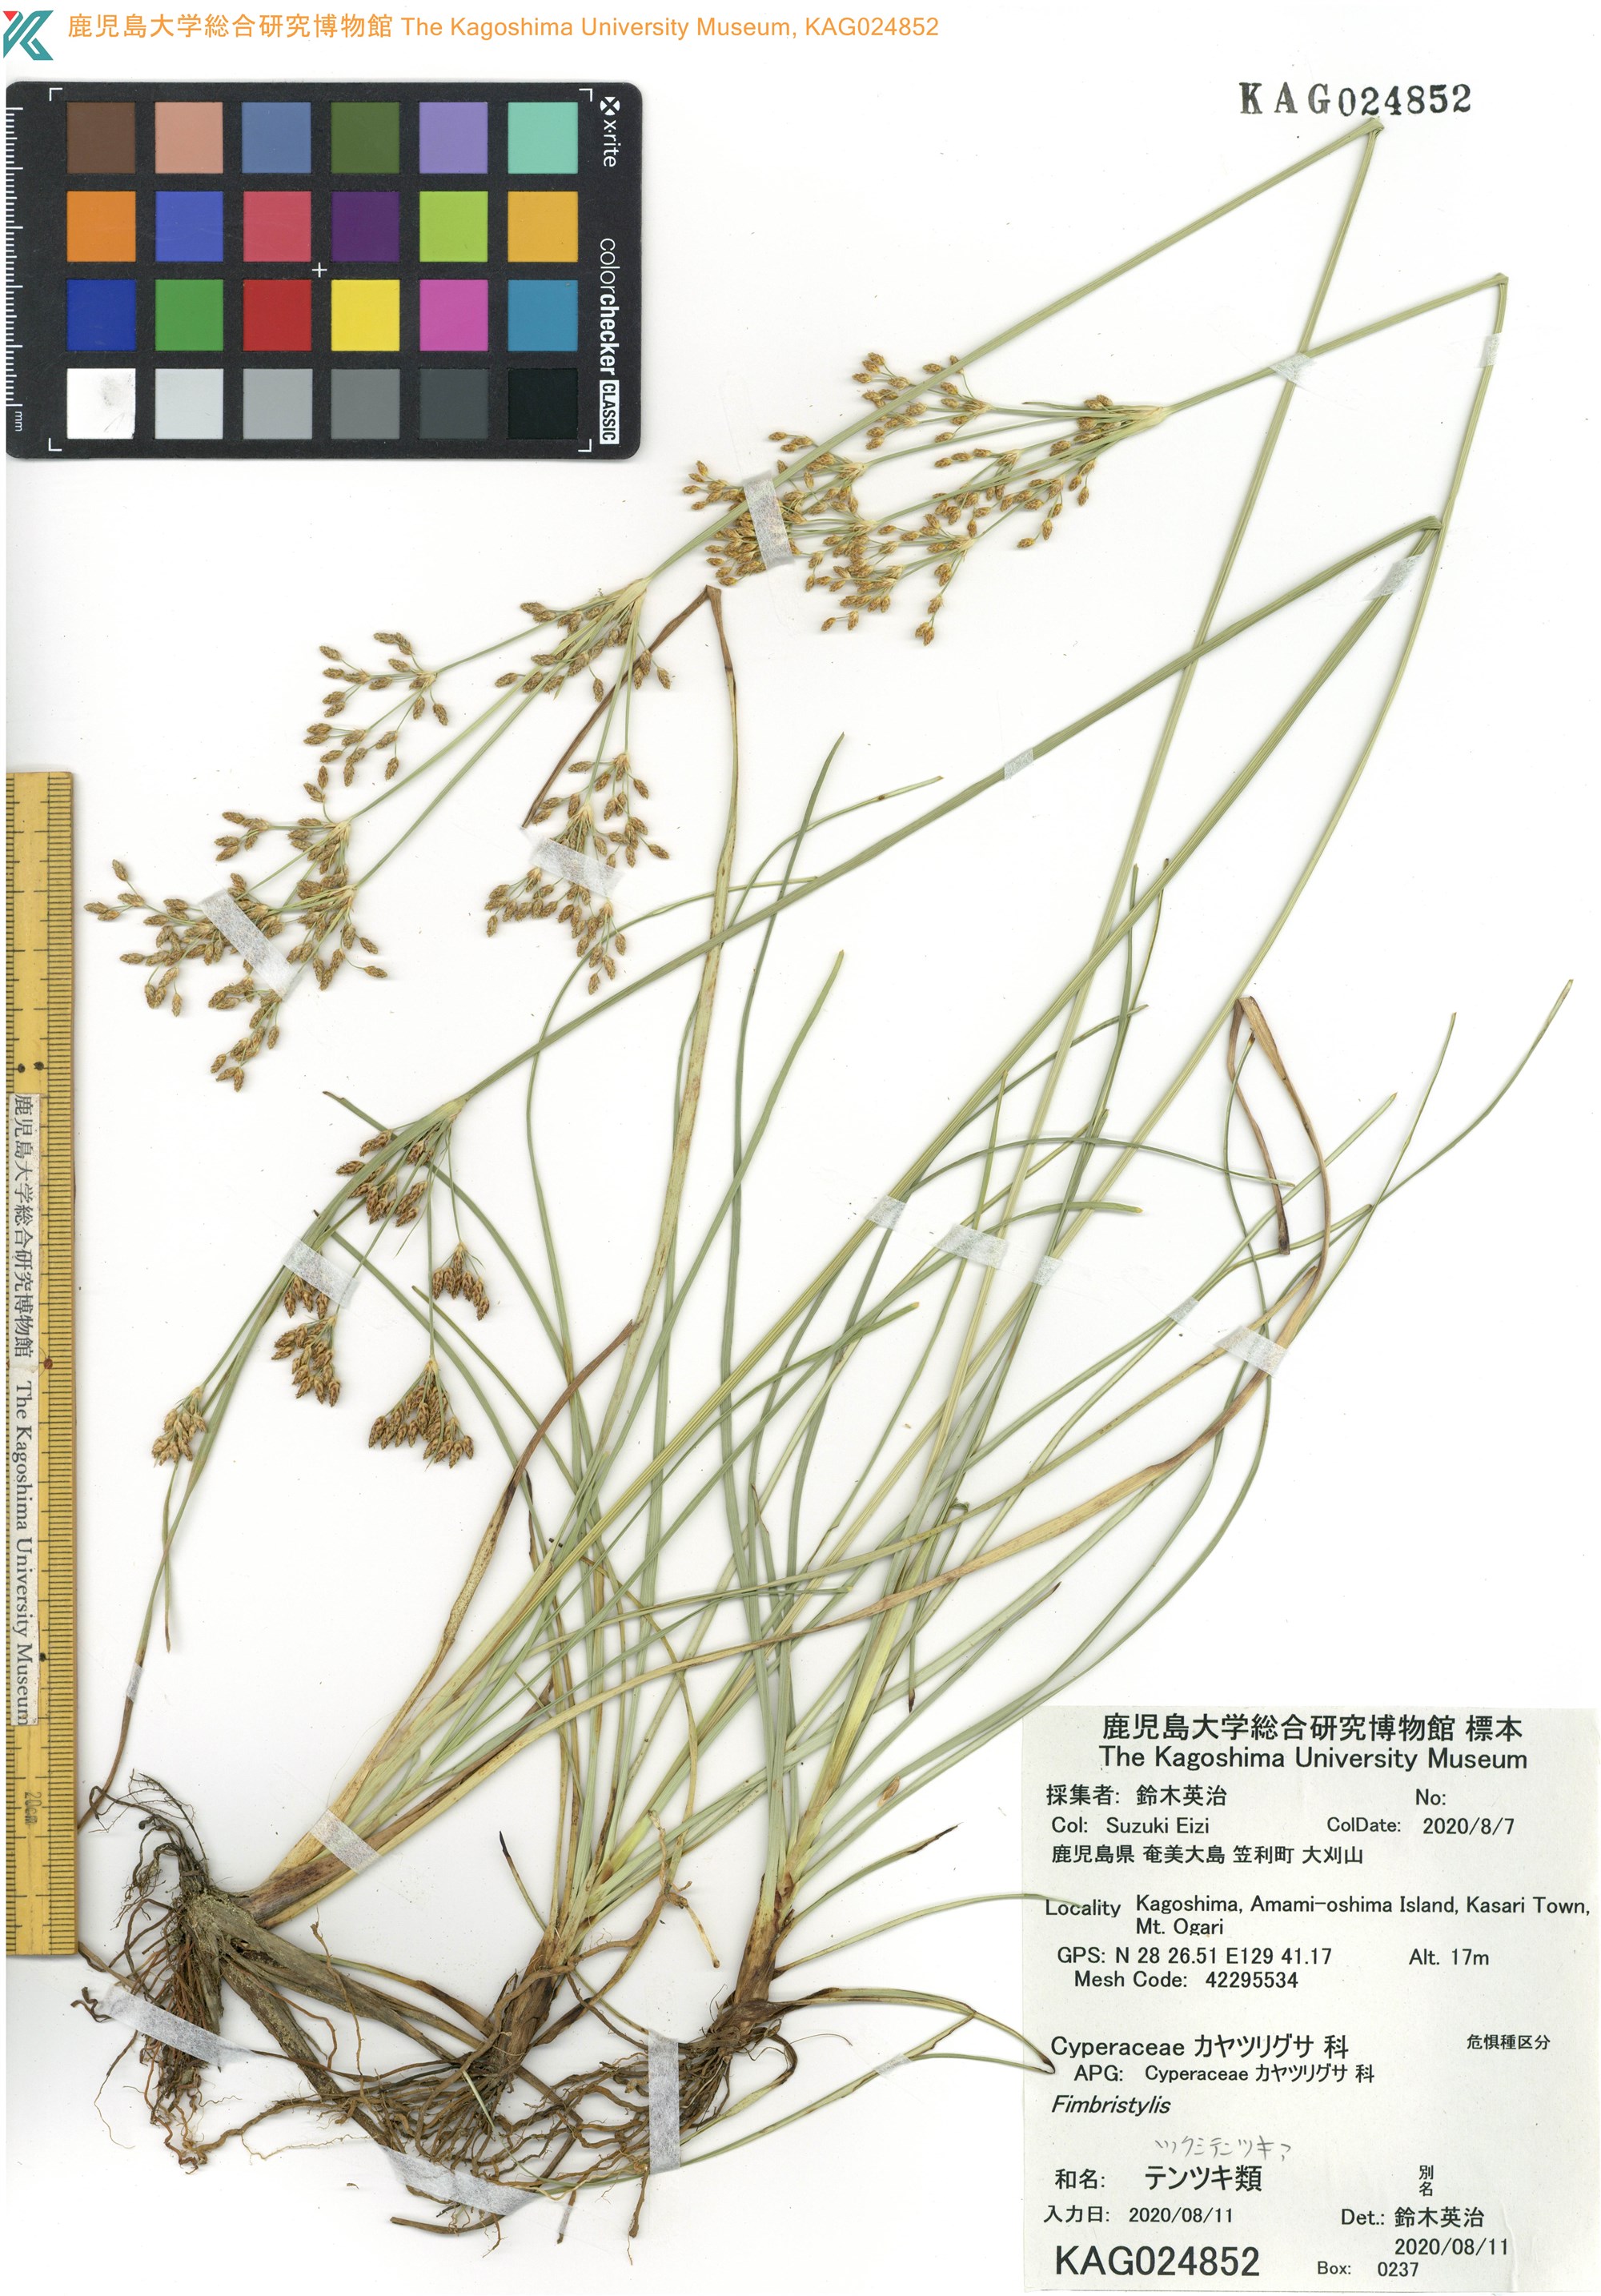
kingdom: Plantae
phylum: Tracheophyta
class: Liliopsida
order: Poales
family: Cyperaceae
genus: Fimbristylis
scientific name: Fimbristylis
